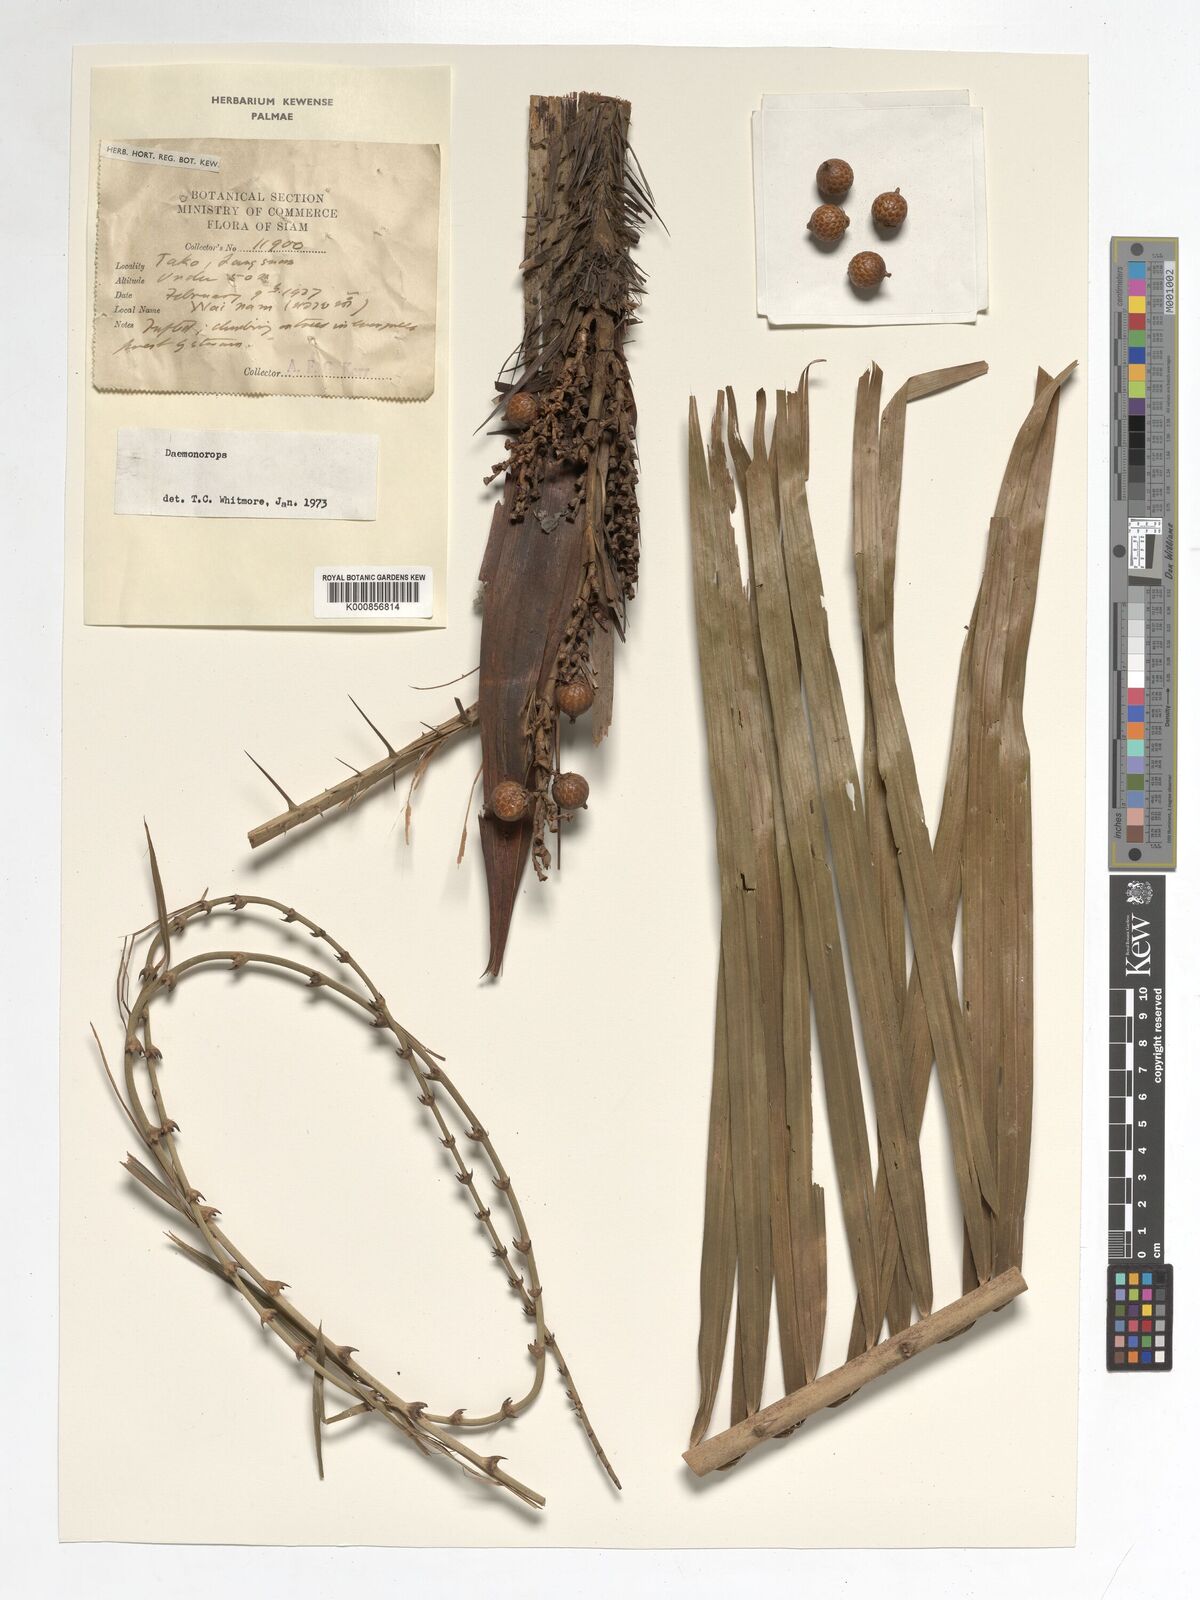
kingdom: Plantae
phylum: Tracheophyta
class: Liliopsida
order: Arecales
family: Arecaceae
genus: Daemonorops
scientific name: Daemonorops
